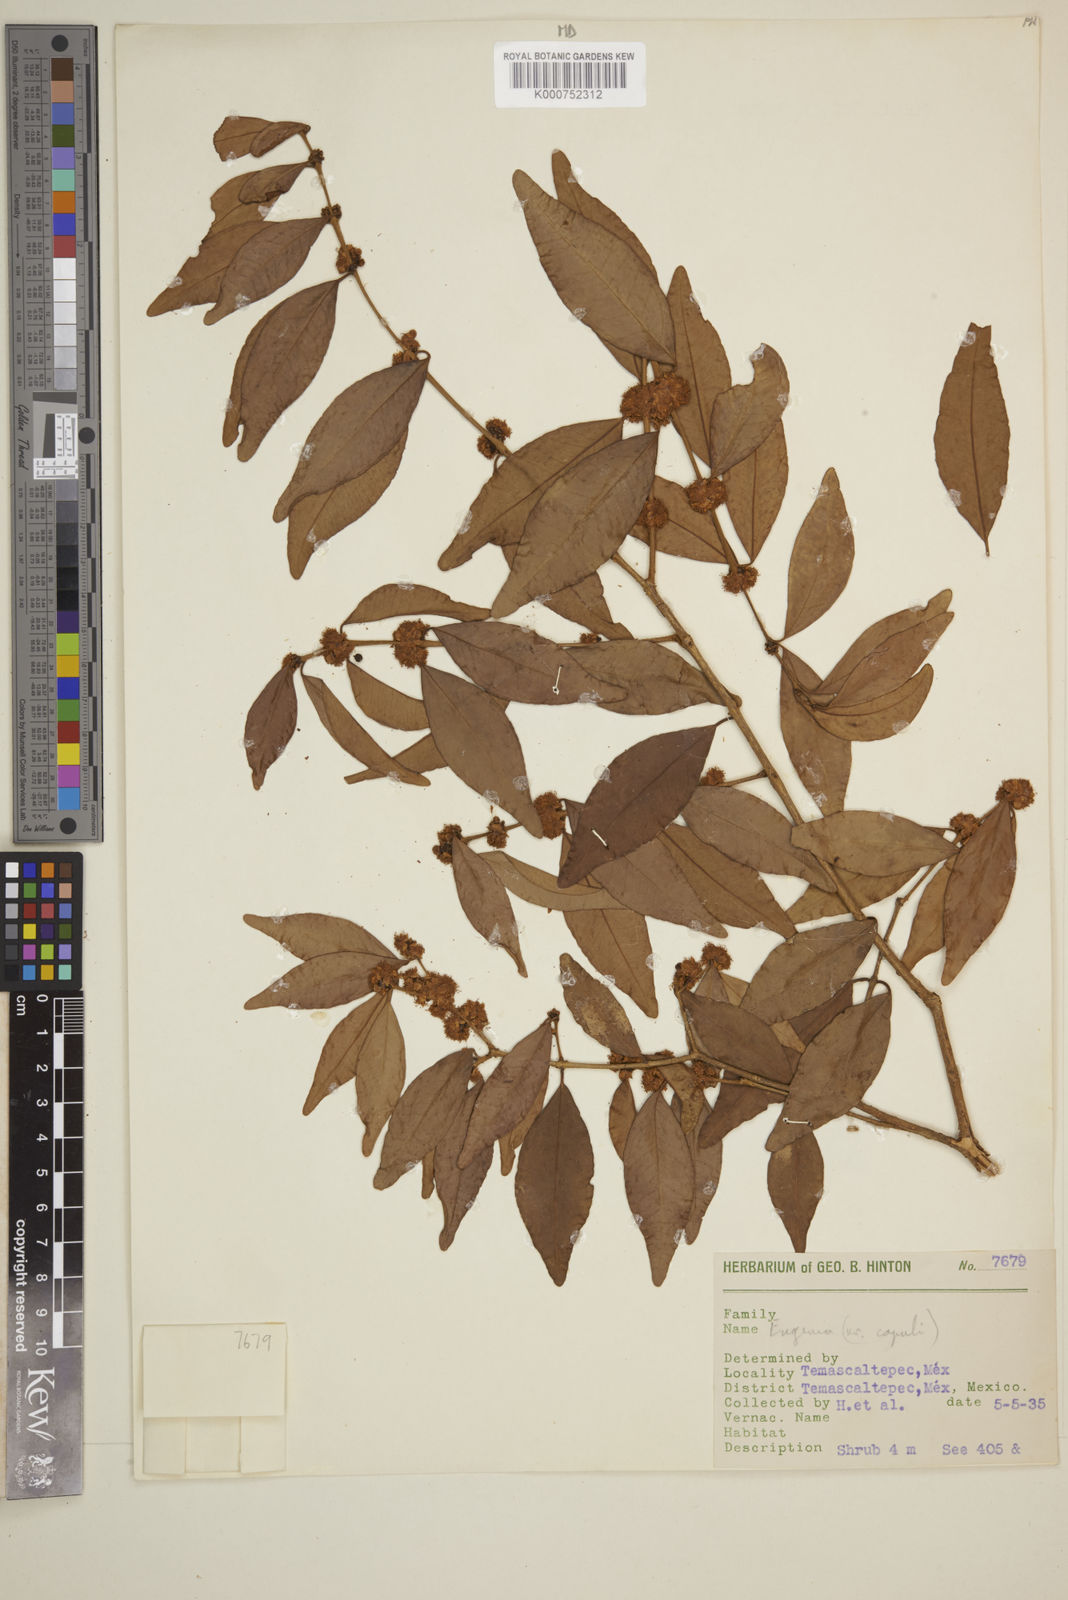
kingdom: Plantae
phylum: Tracheophyta
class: Magnoliopsida
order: Myrtales
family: Myrtaceae
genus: Eugenia
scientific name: Eugenia capuli
